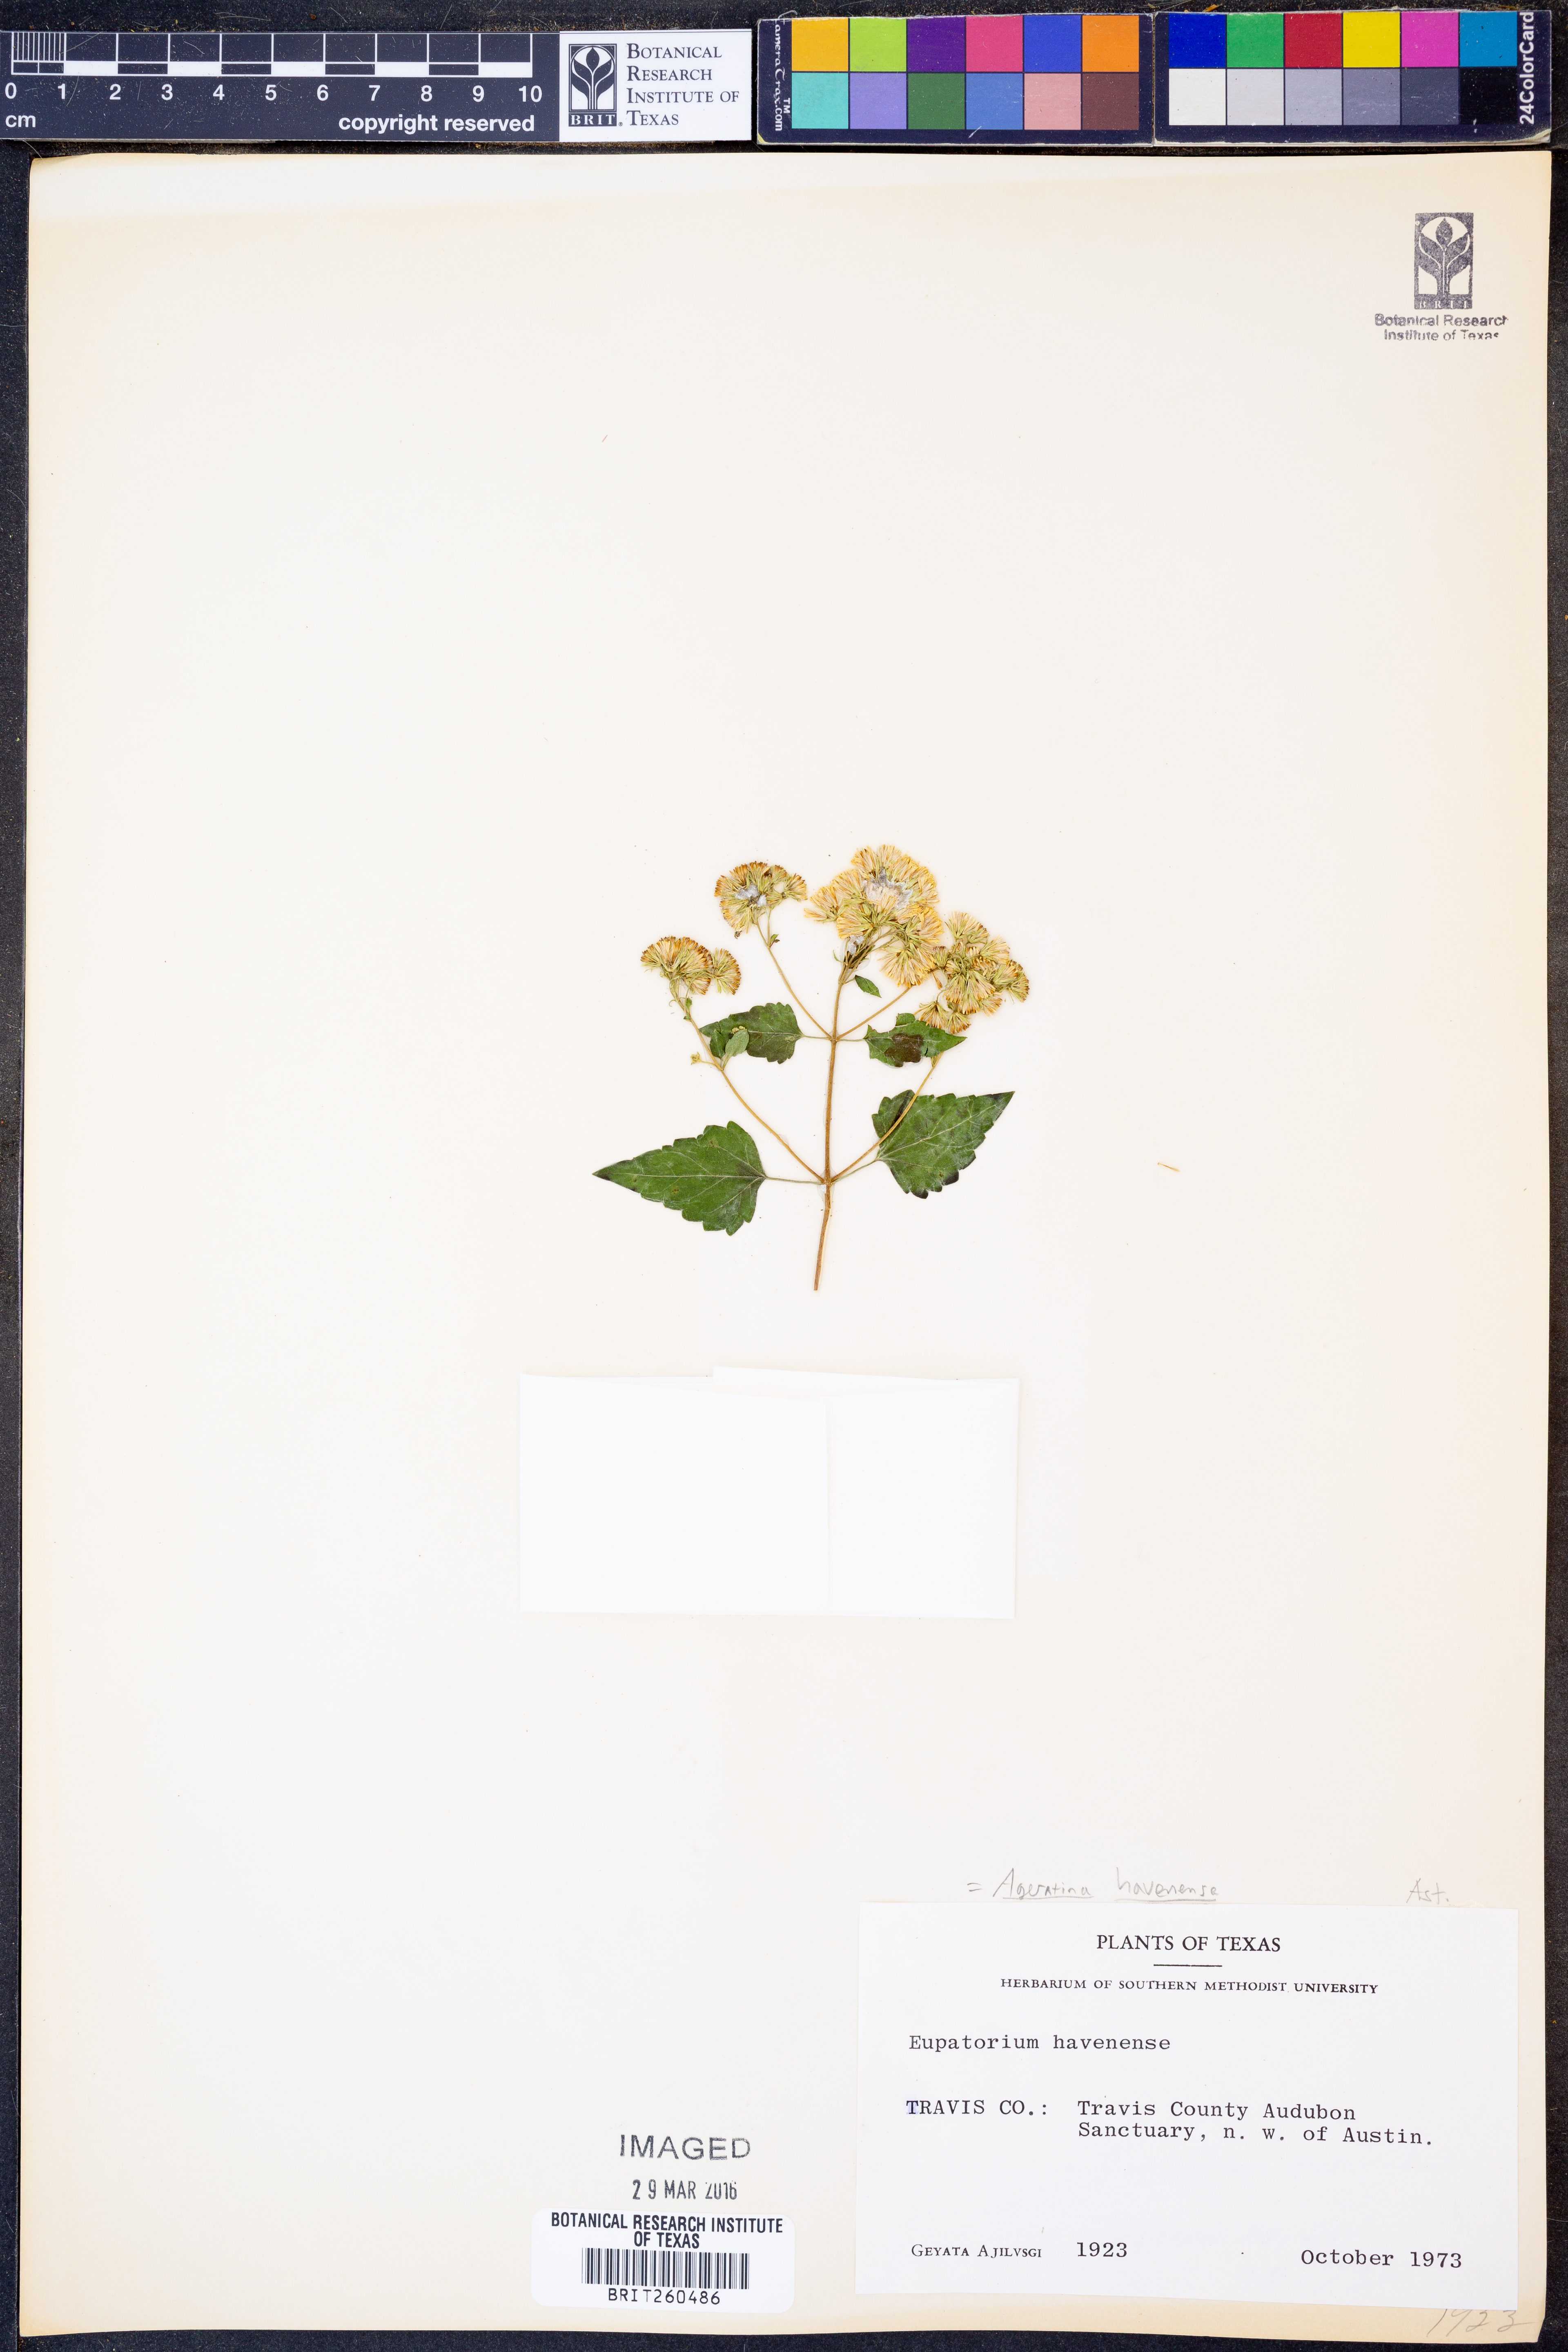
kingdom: Plantae
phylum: Tracheophyta
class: Magnoliopsida
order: Asterales
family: Asteraceae
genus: Ageratina
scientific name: Ageratina havanensis
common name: Havana snakeroot
